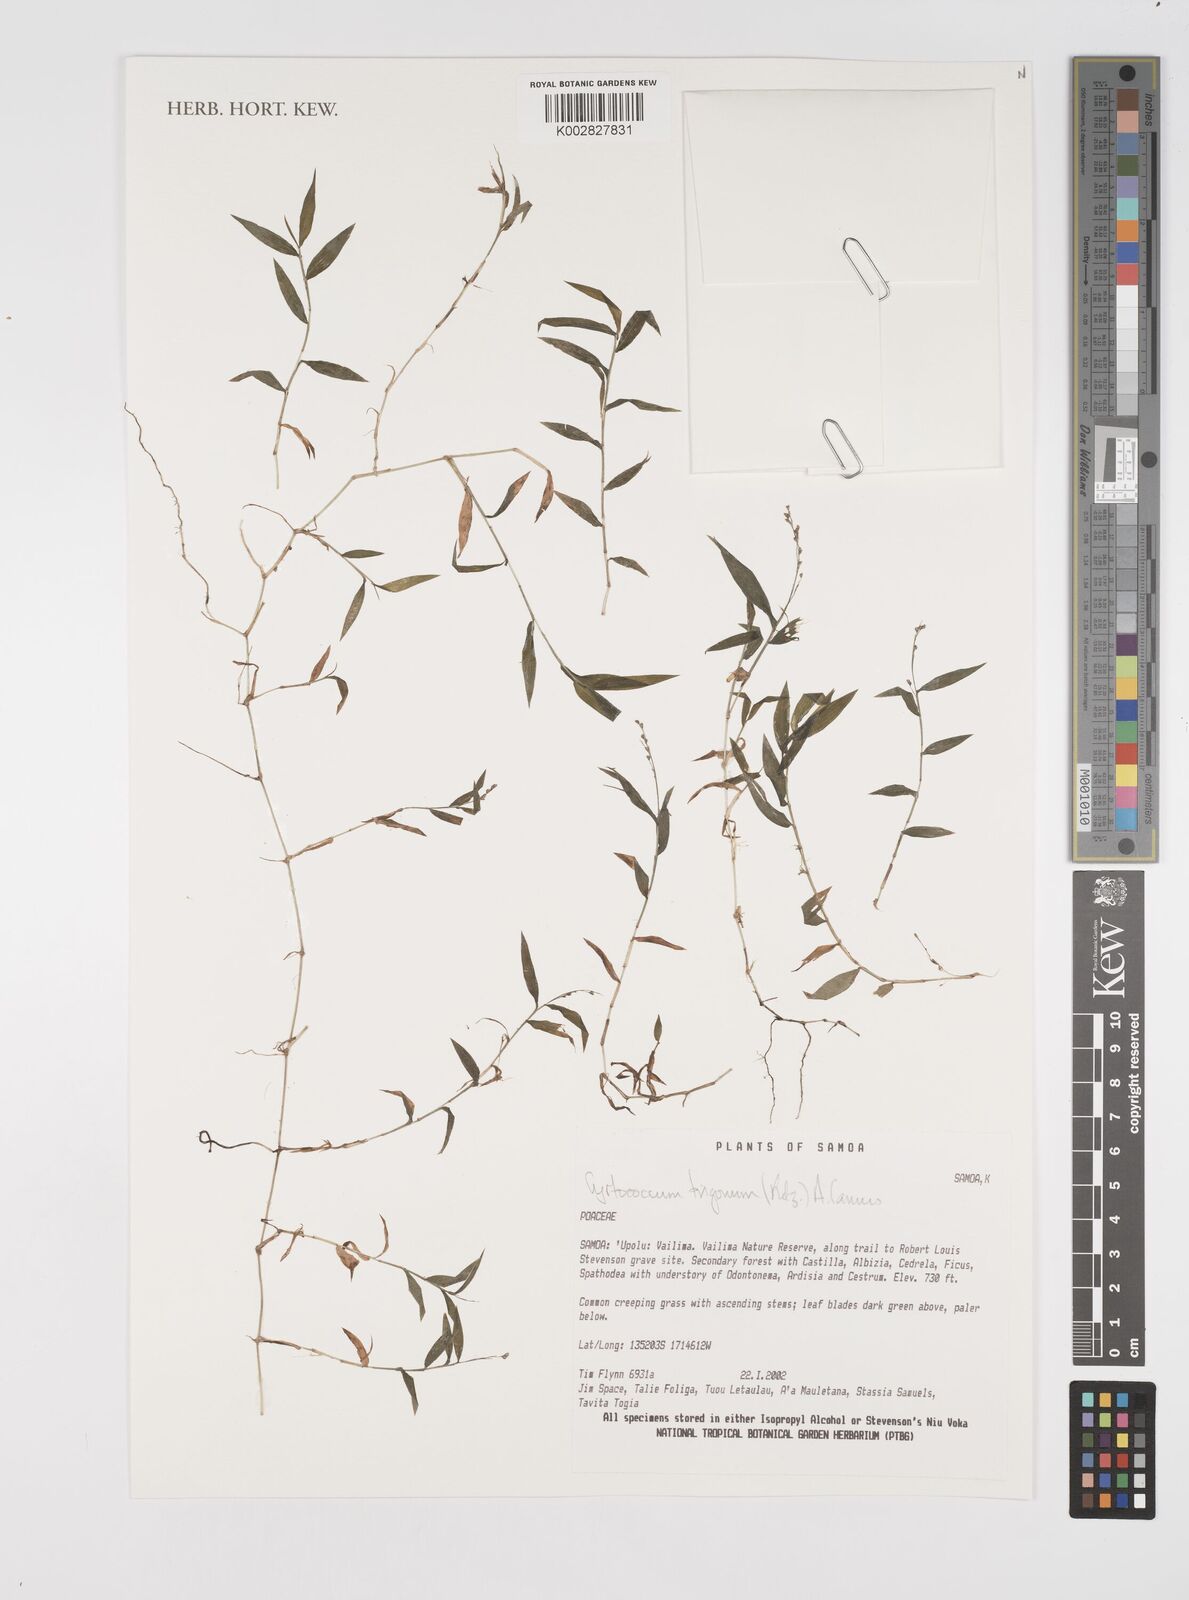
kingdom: Plantae
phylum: Tracheophyta
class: Liliopsida
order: Poales
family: Poaceae
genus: Cyrtococcum
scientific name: Cyrtococcum trigonum
